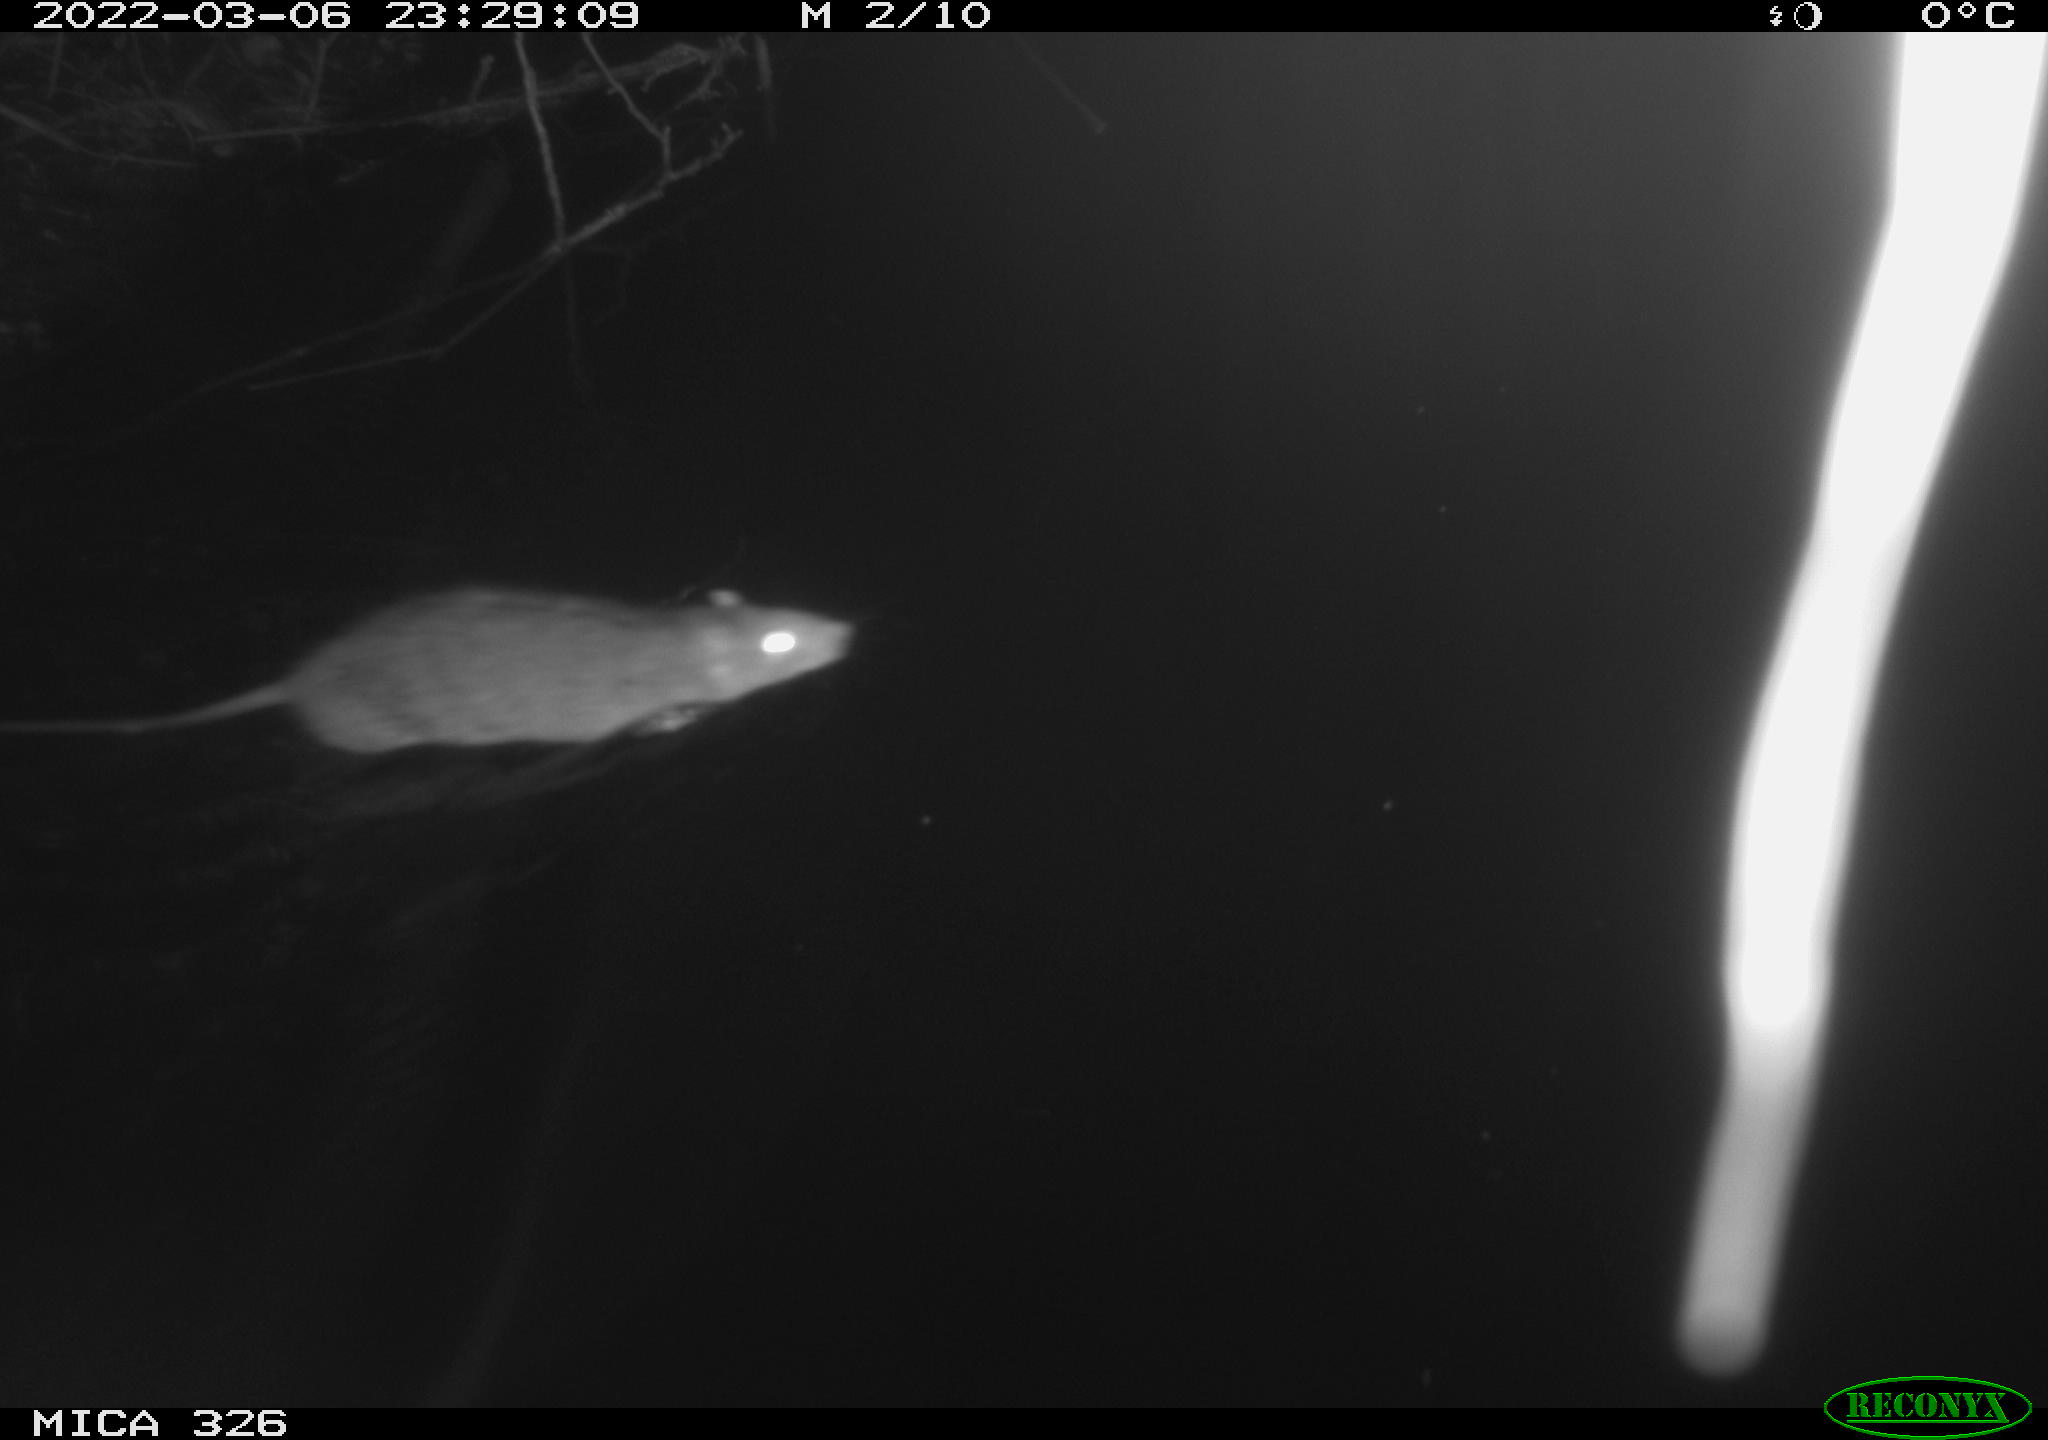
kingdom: Animalia
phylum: Chordata
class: Mammalia
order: Rodentia
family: Muridae
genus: Rattus
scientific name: Rattus norvegicus
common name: Brown rat
